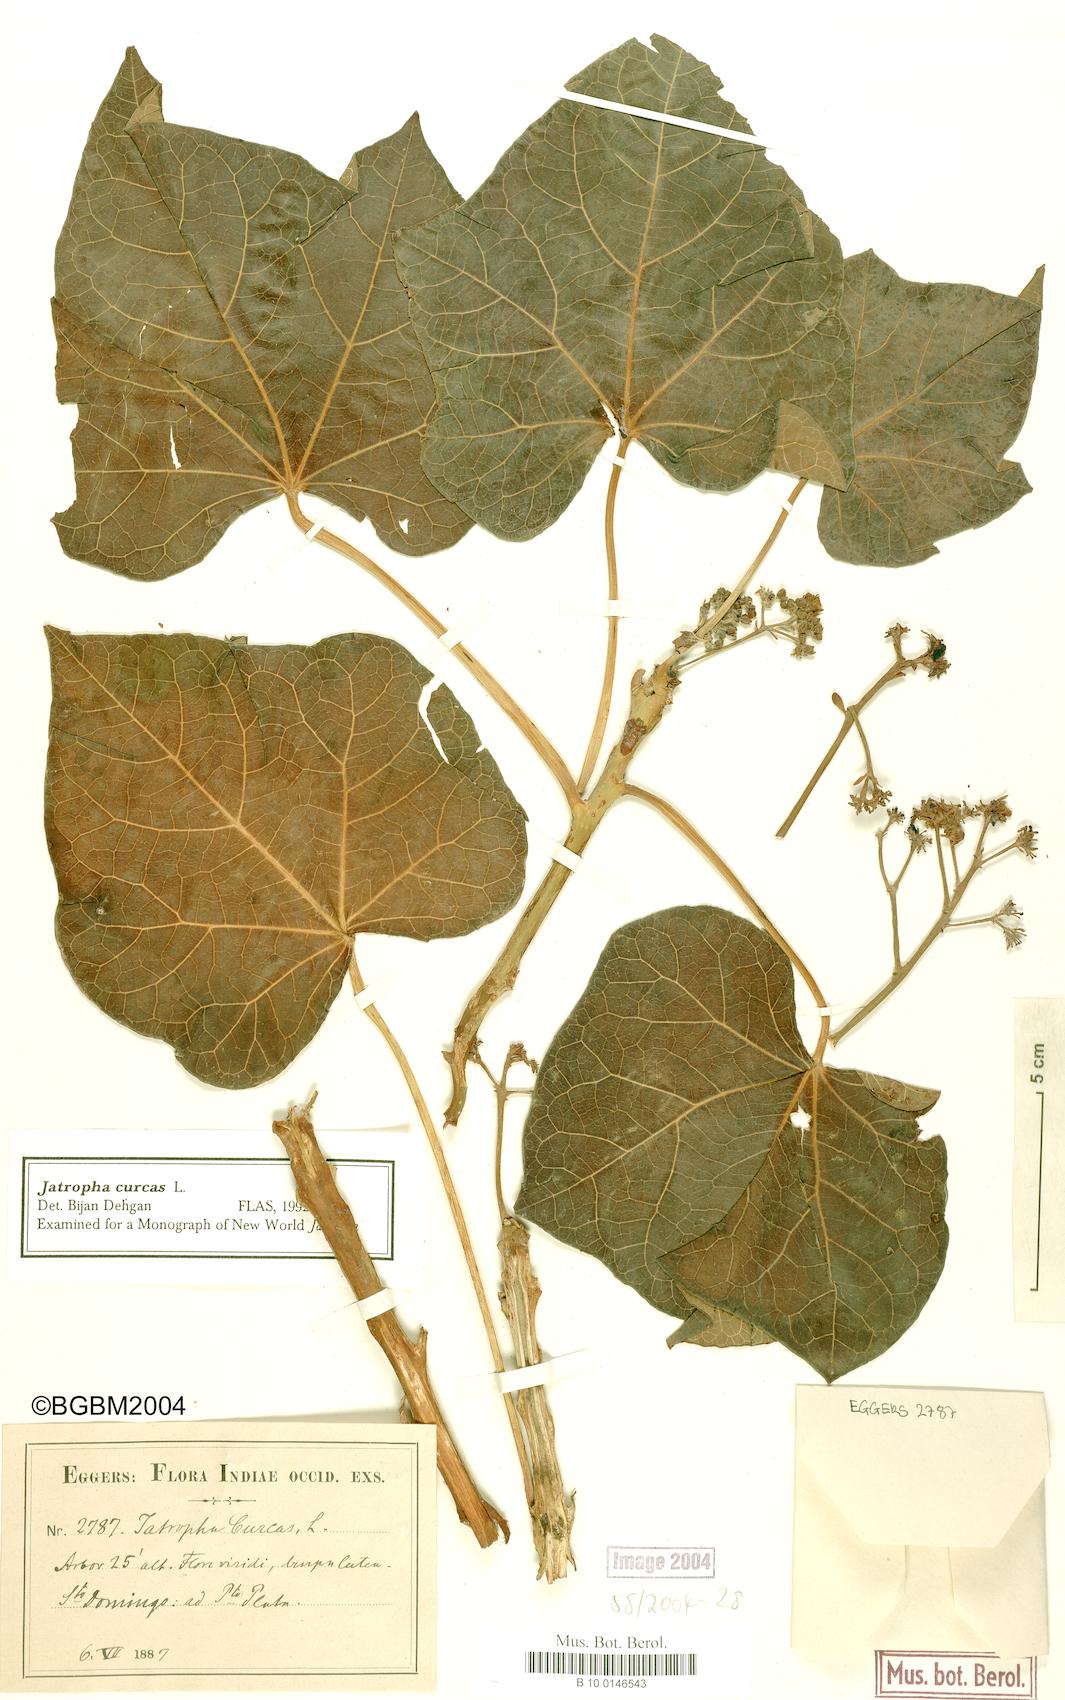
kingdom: Plantae
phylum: Tracheophyta
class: Magnoliopsida
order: Malpighiales
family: Euphorbiaceae
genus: Jatropha
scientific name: Jatropha curcas
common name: Barbados nut
